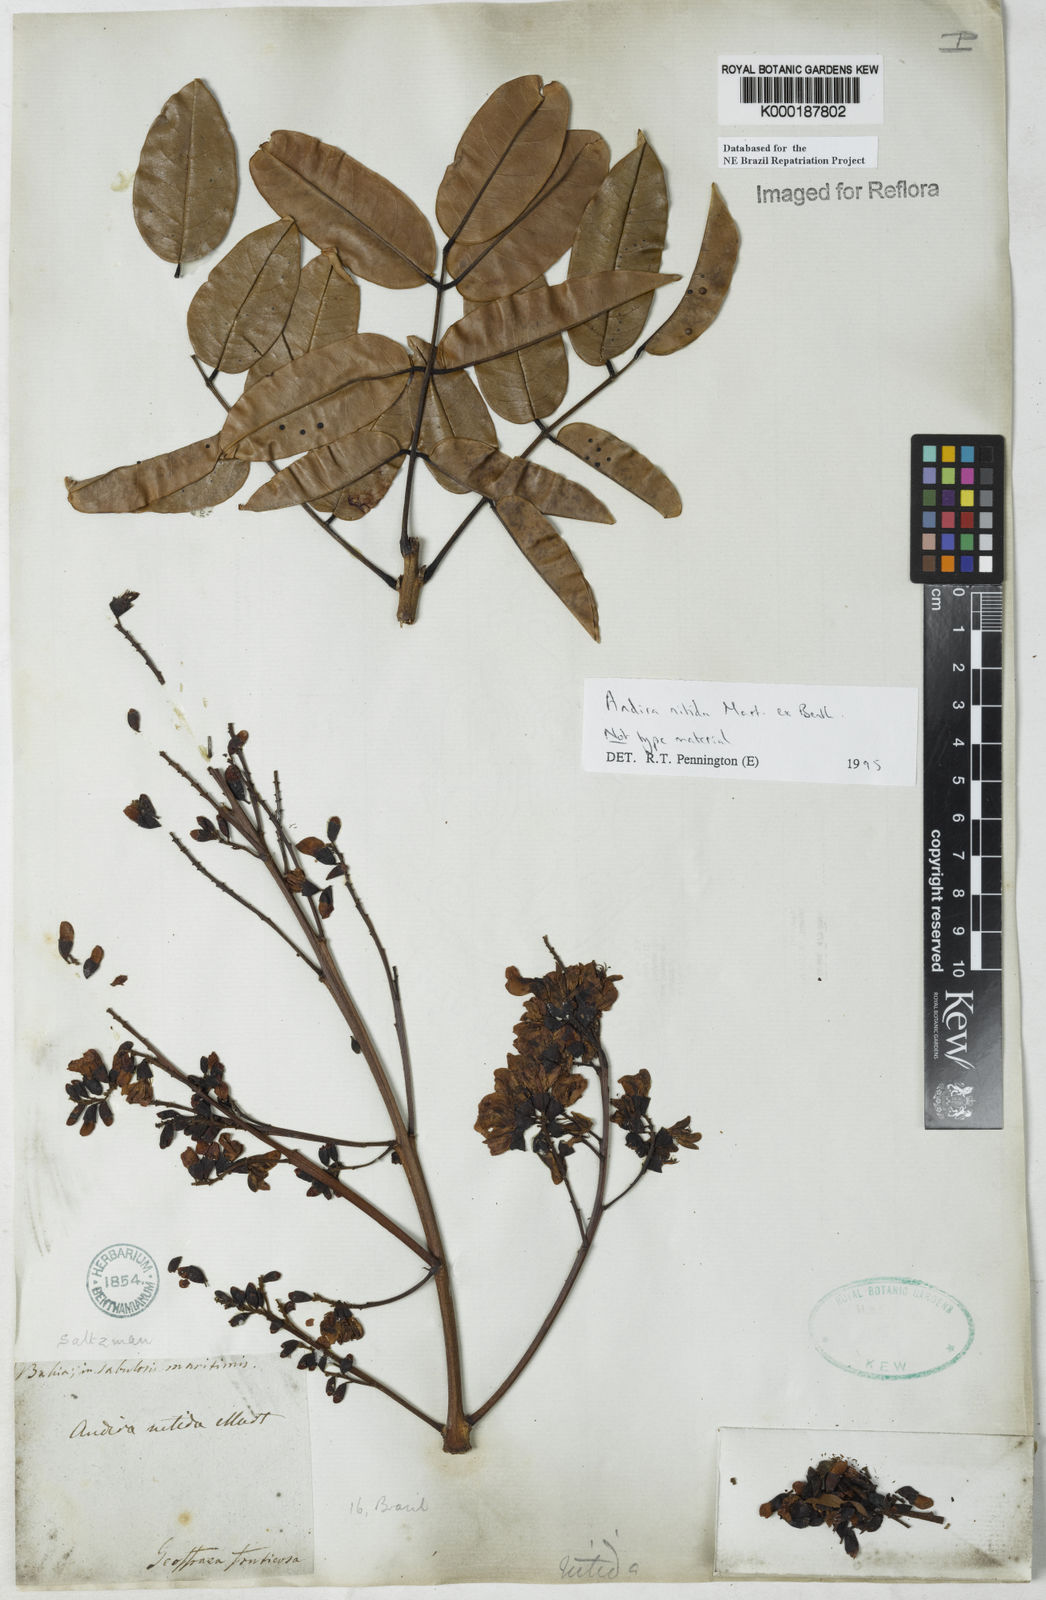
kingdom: Plantae
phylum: Tracheophyta
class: Magnoliopsida
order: Fabales
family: Fabaceae
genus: Andira
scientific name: Andira nitida
